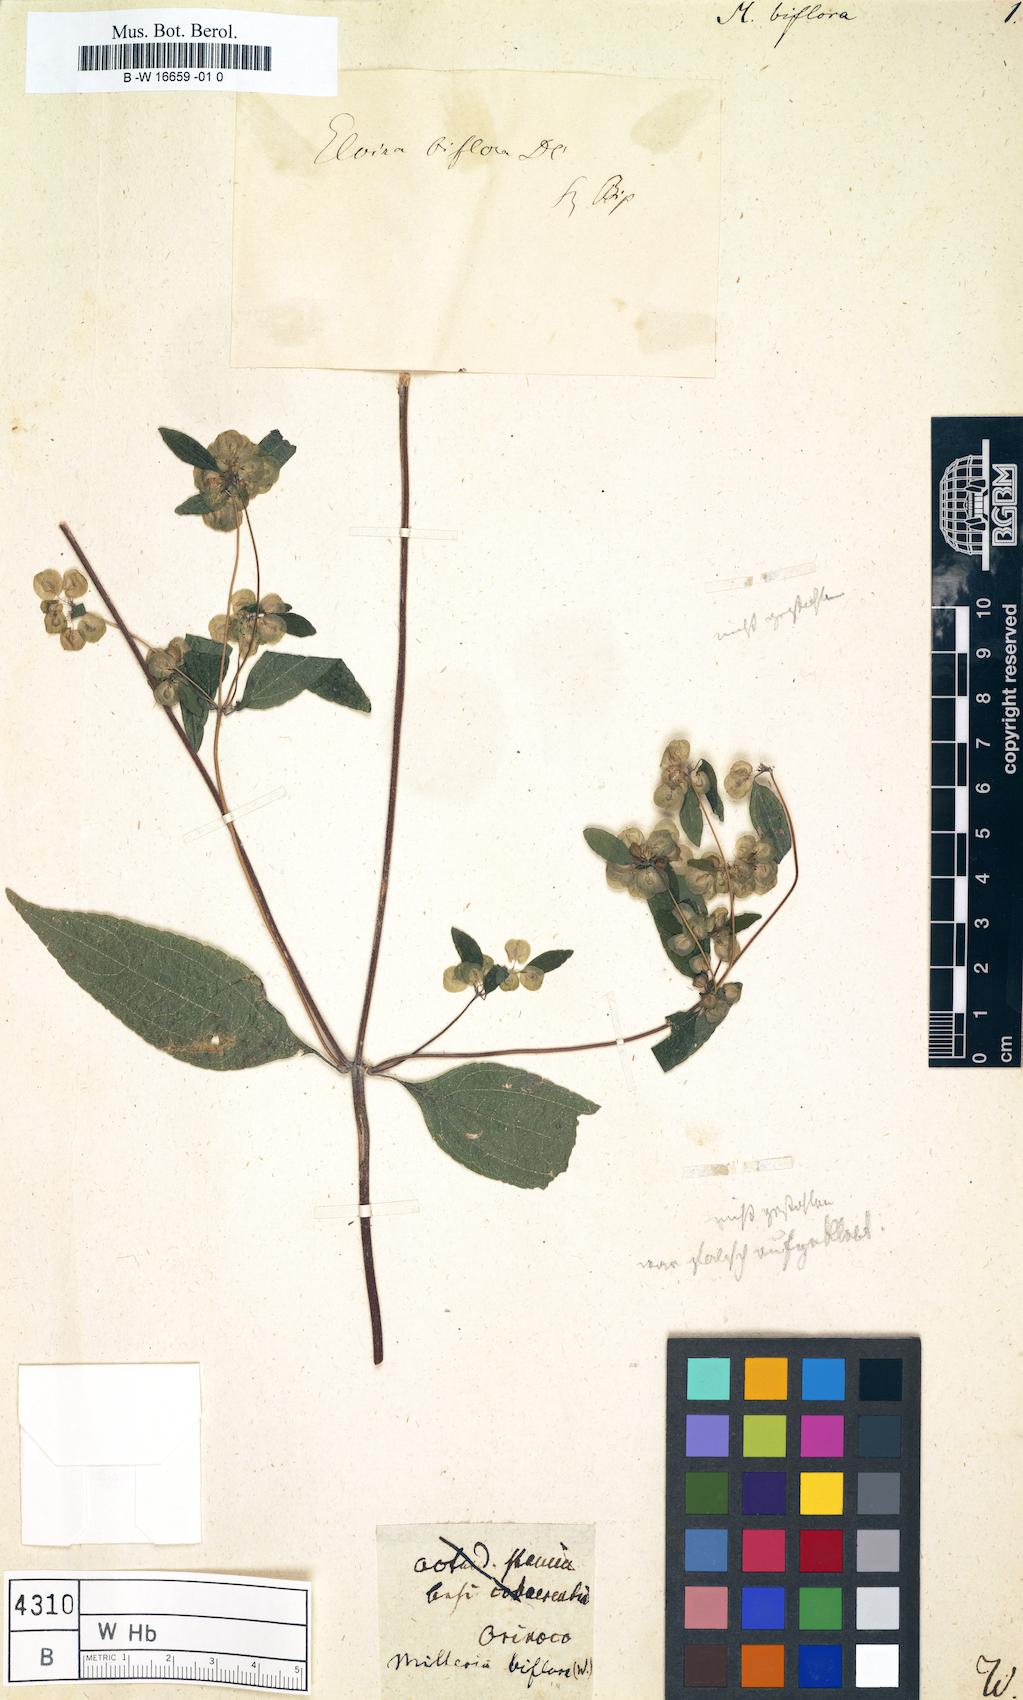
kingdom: Plantae
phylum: Tracheophyta
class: Magnoliopsida
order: Asterales
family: Asteraceae
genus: Delilia
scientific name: Delilia biflora
